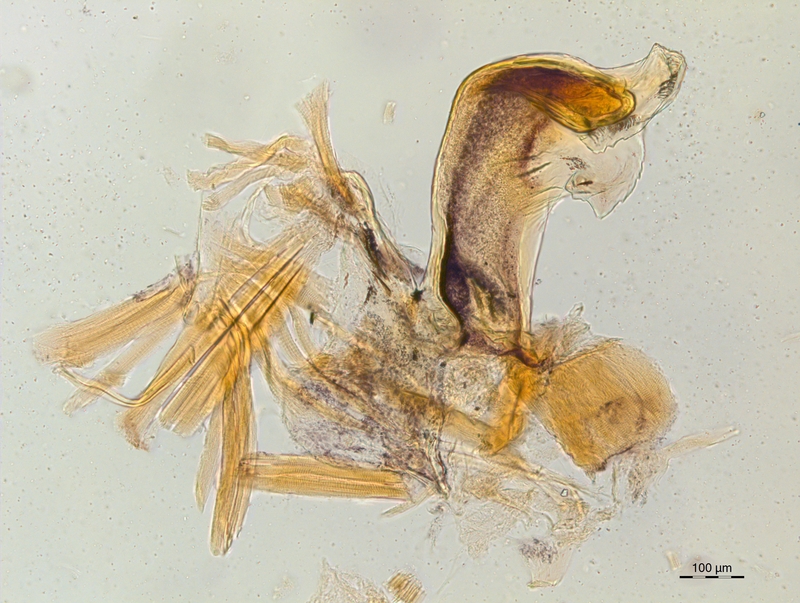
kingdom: Animalia
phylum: Arthropoda
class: Diplopoda
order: Chordeumatida
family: Craspedosomatidae
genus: Craspedosoma
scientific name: Craspedosoma rawlinsii
